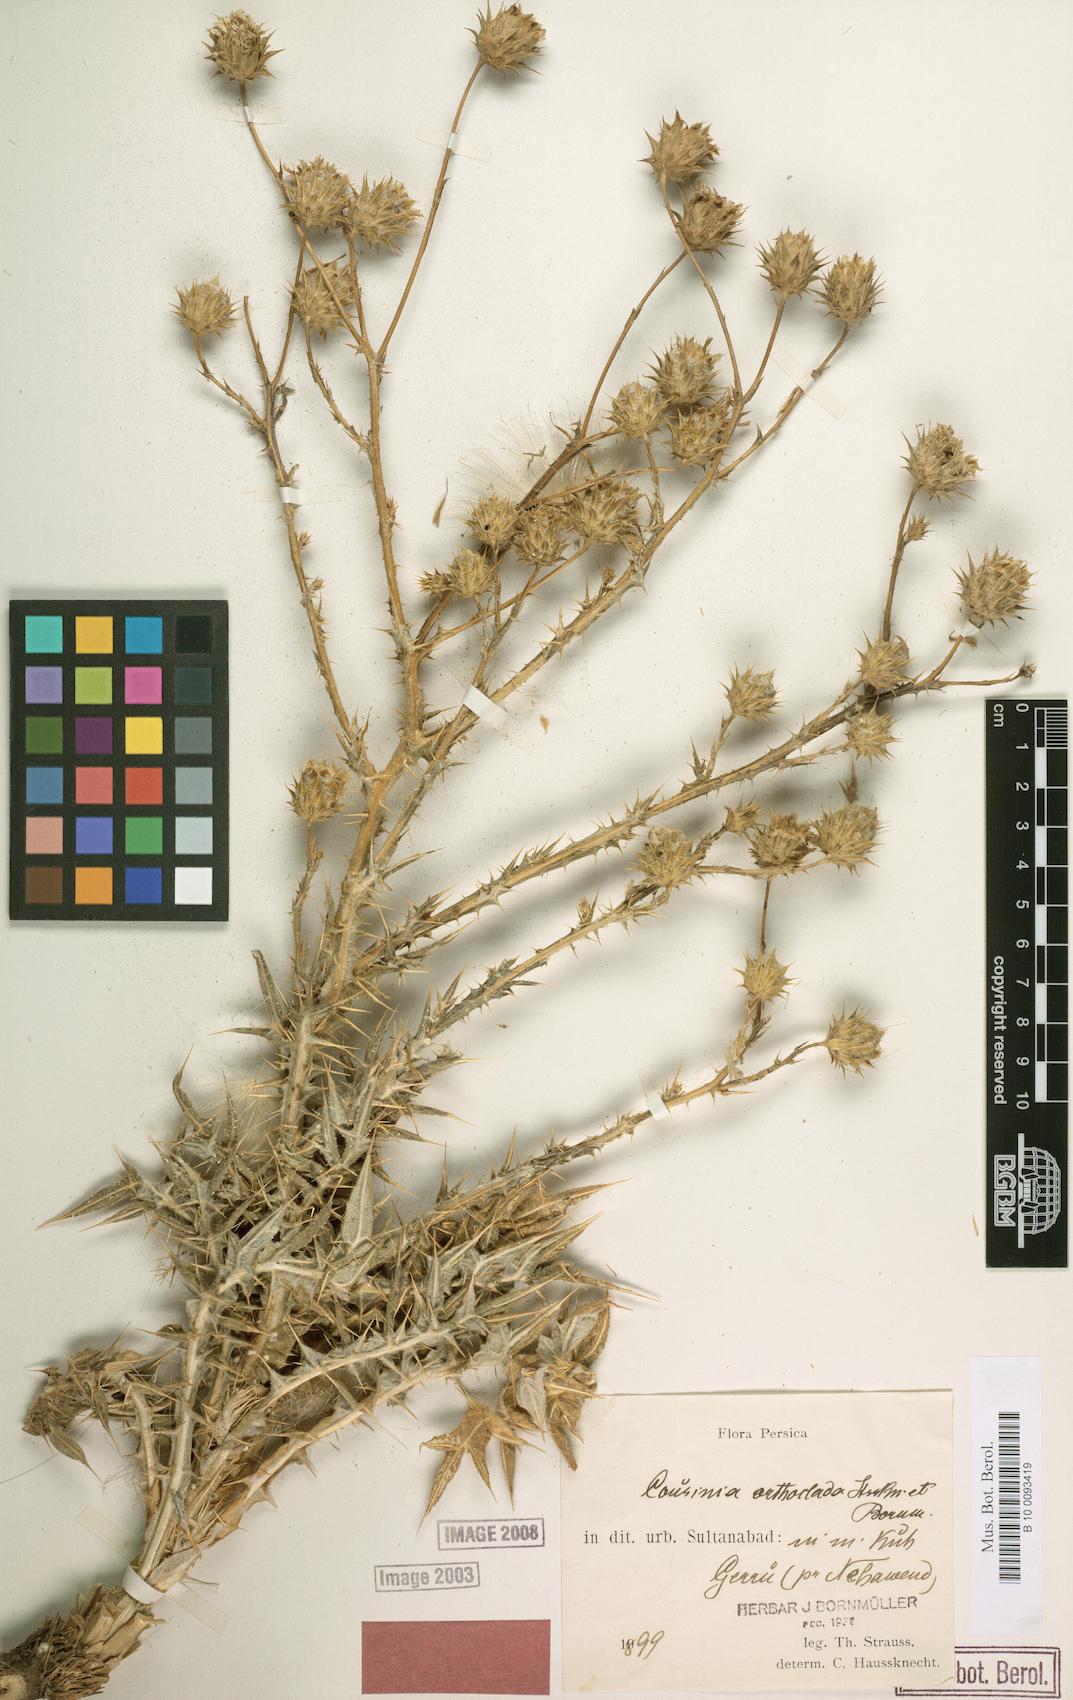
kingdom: Plantae
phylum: Tracheophyta
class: Magnoliopsida
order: Asterales
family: Asteraceae
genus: Cousinia
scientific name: Cousinia orthoclada
